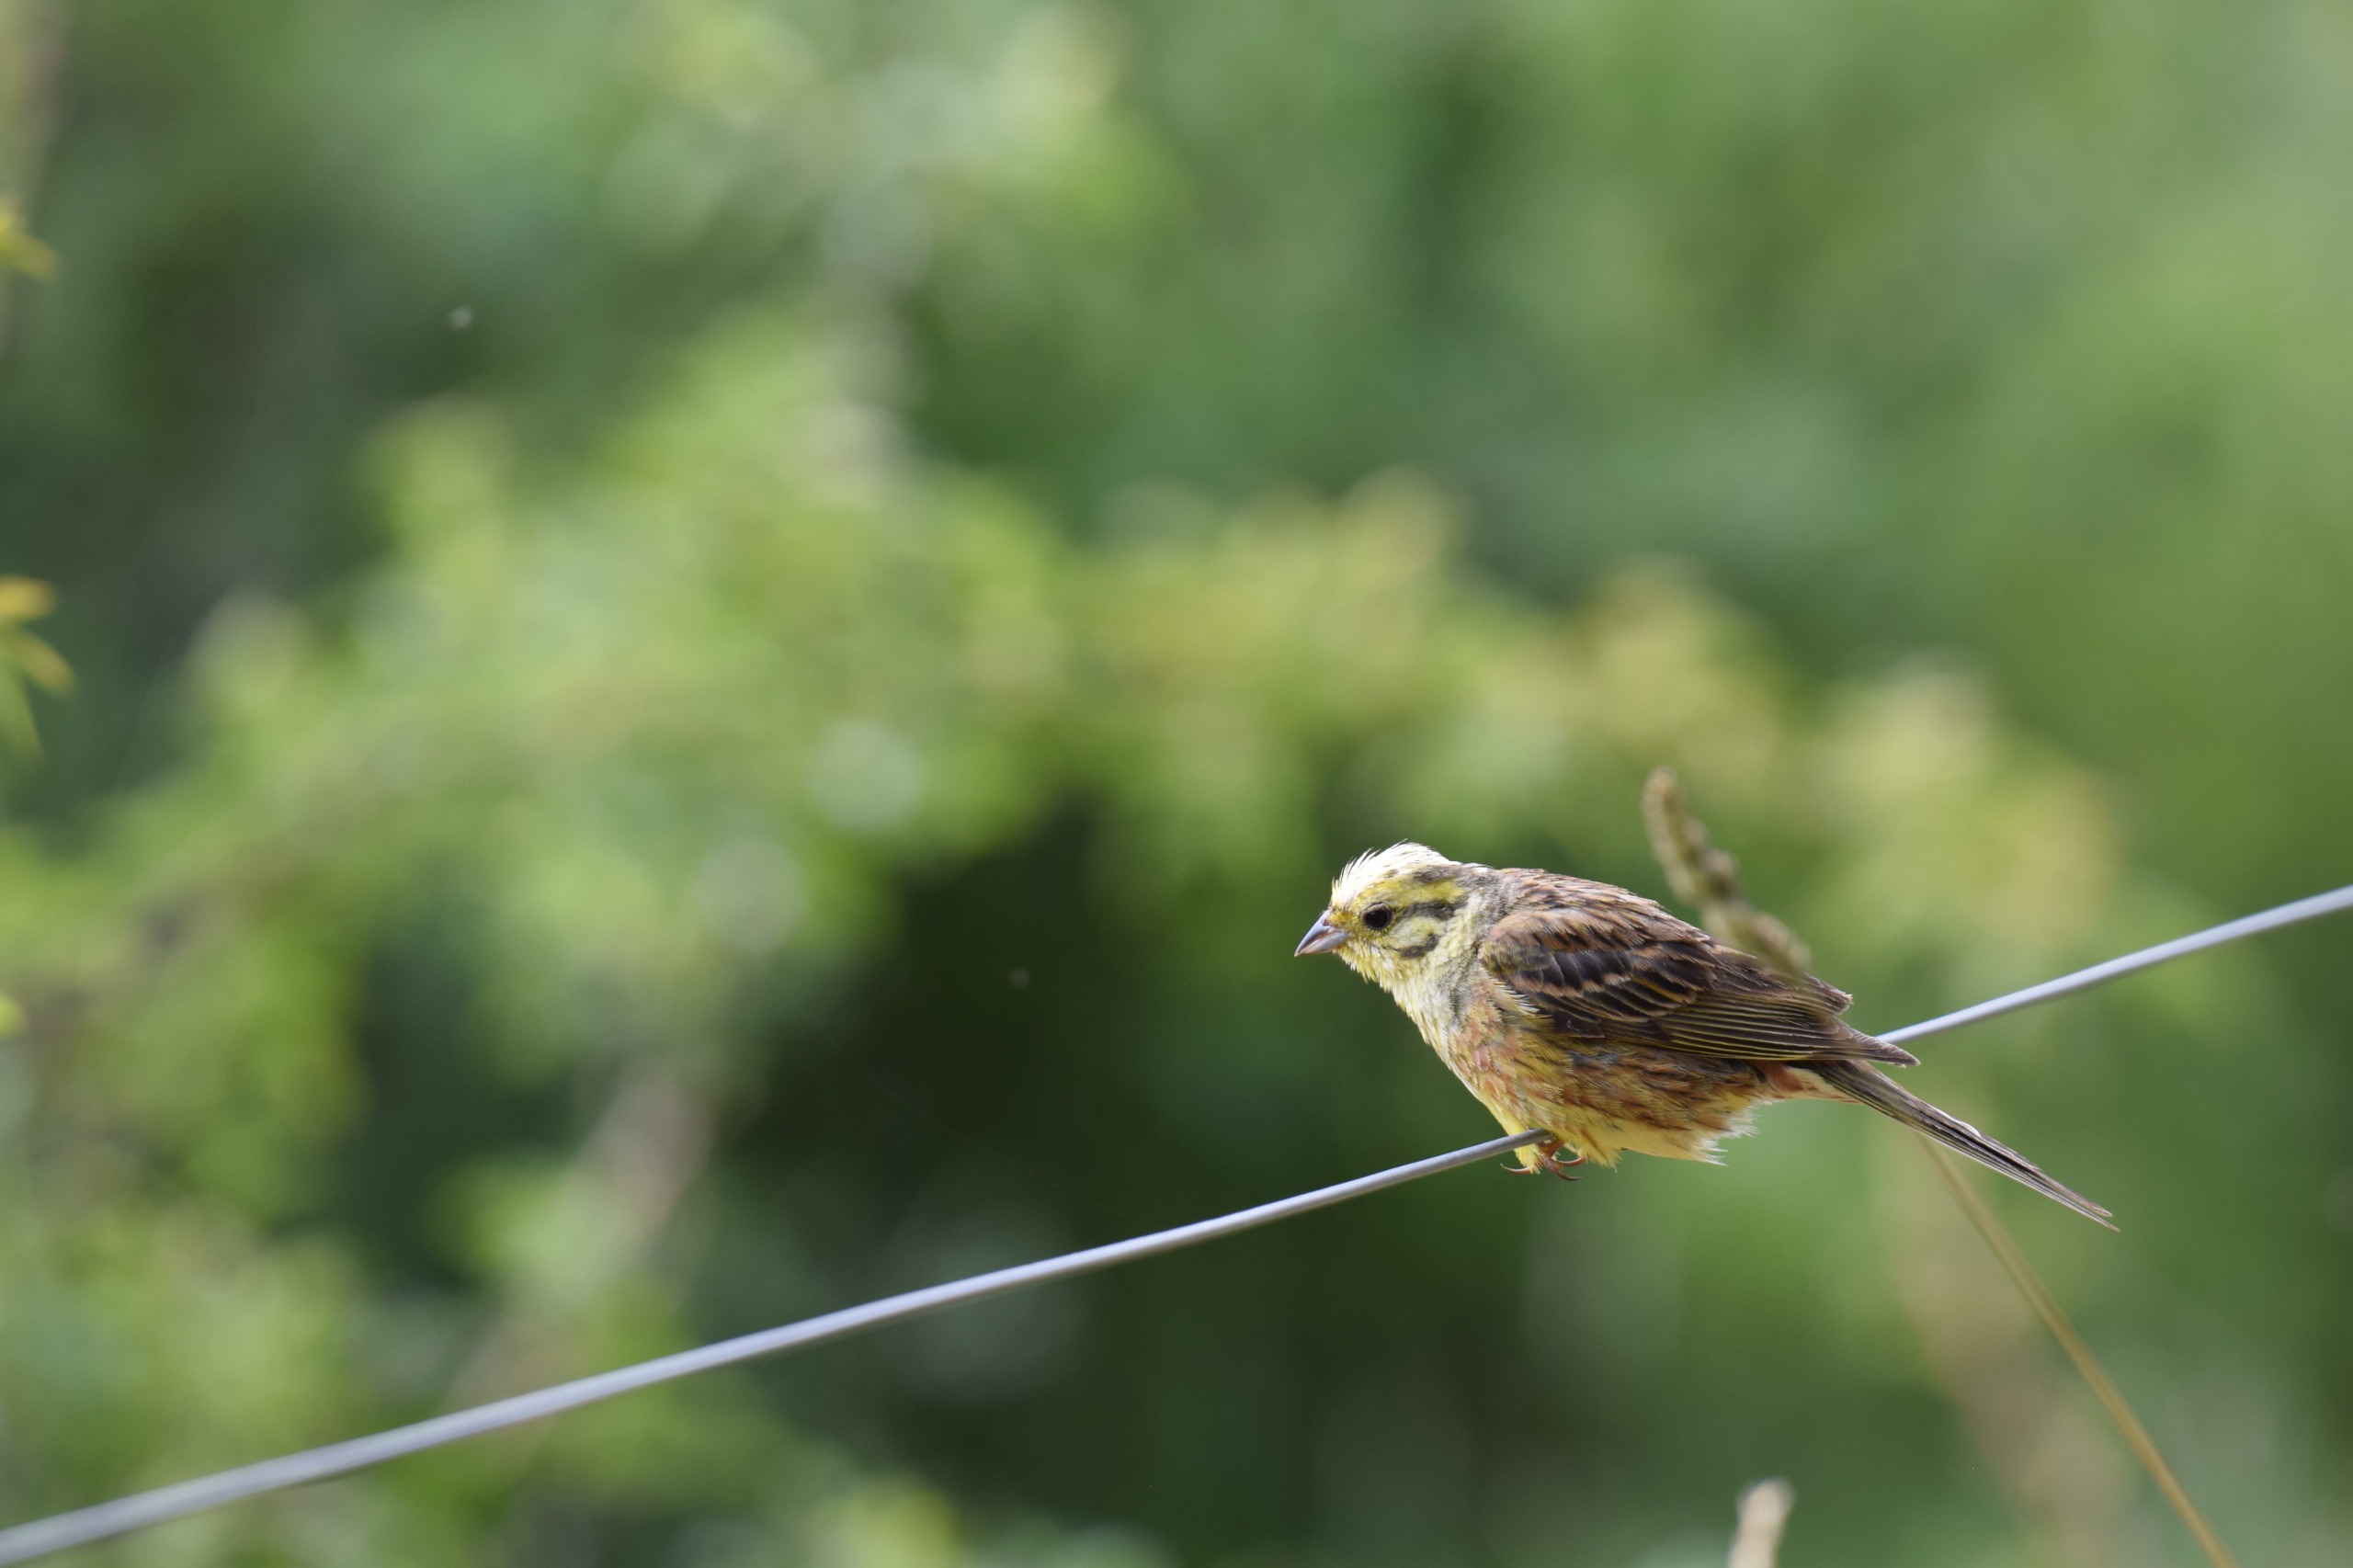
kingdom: Animalia
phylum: Chordata
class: Aves
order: Passeriformes
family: Emberizidae
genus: Emberiza
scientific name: Emberiza citrinella
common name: Gulspurv
